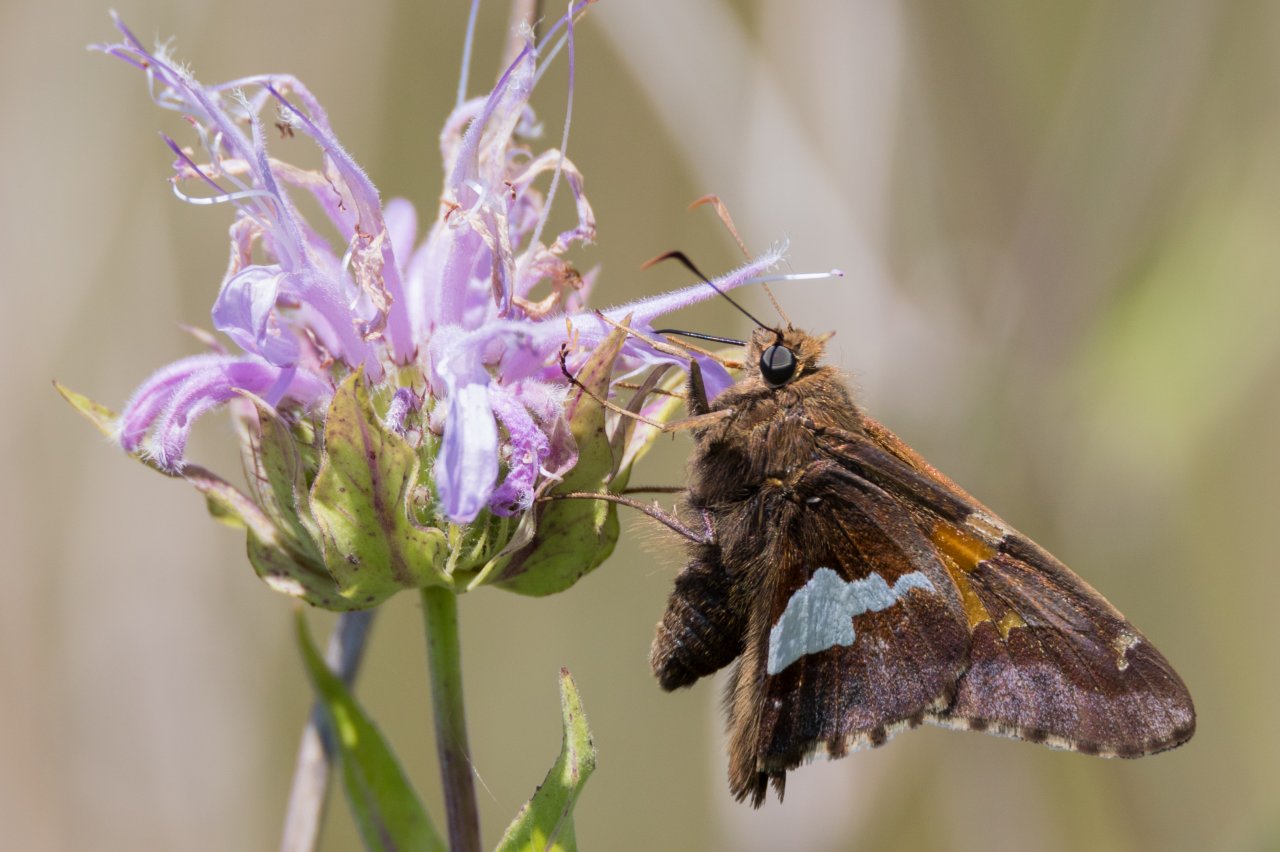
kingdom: Animalia
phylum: Arthropoda
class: Insecta
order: Lepidoptera
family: Hesperiidae
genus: Epargyreus
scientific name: Epargyreus clarus
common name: Silver-spotted Skipper
